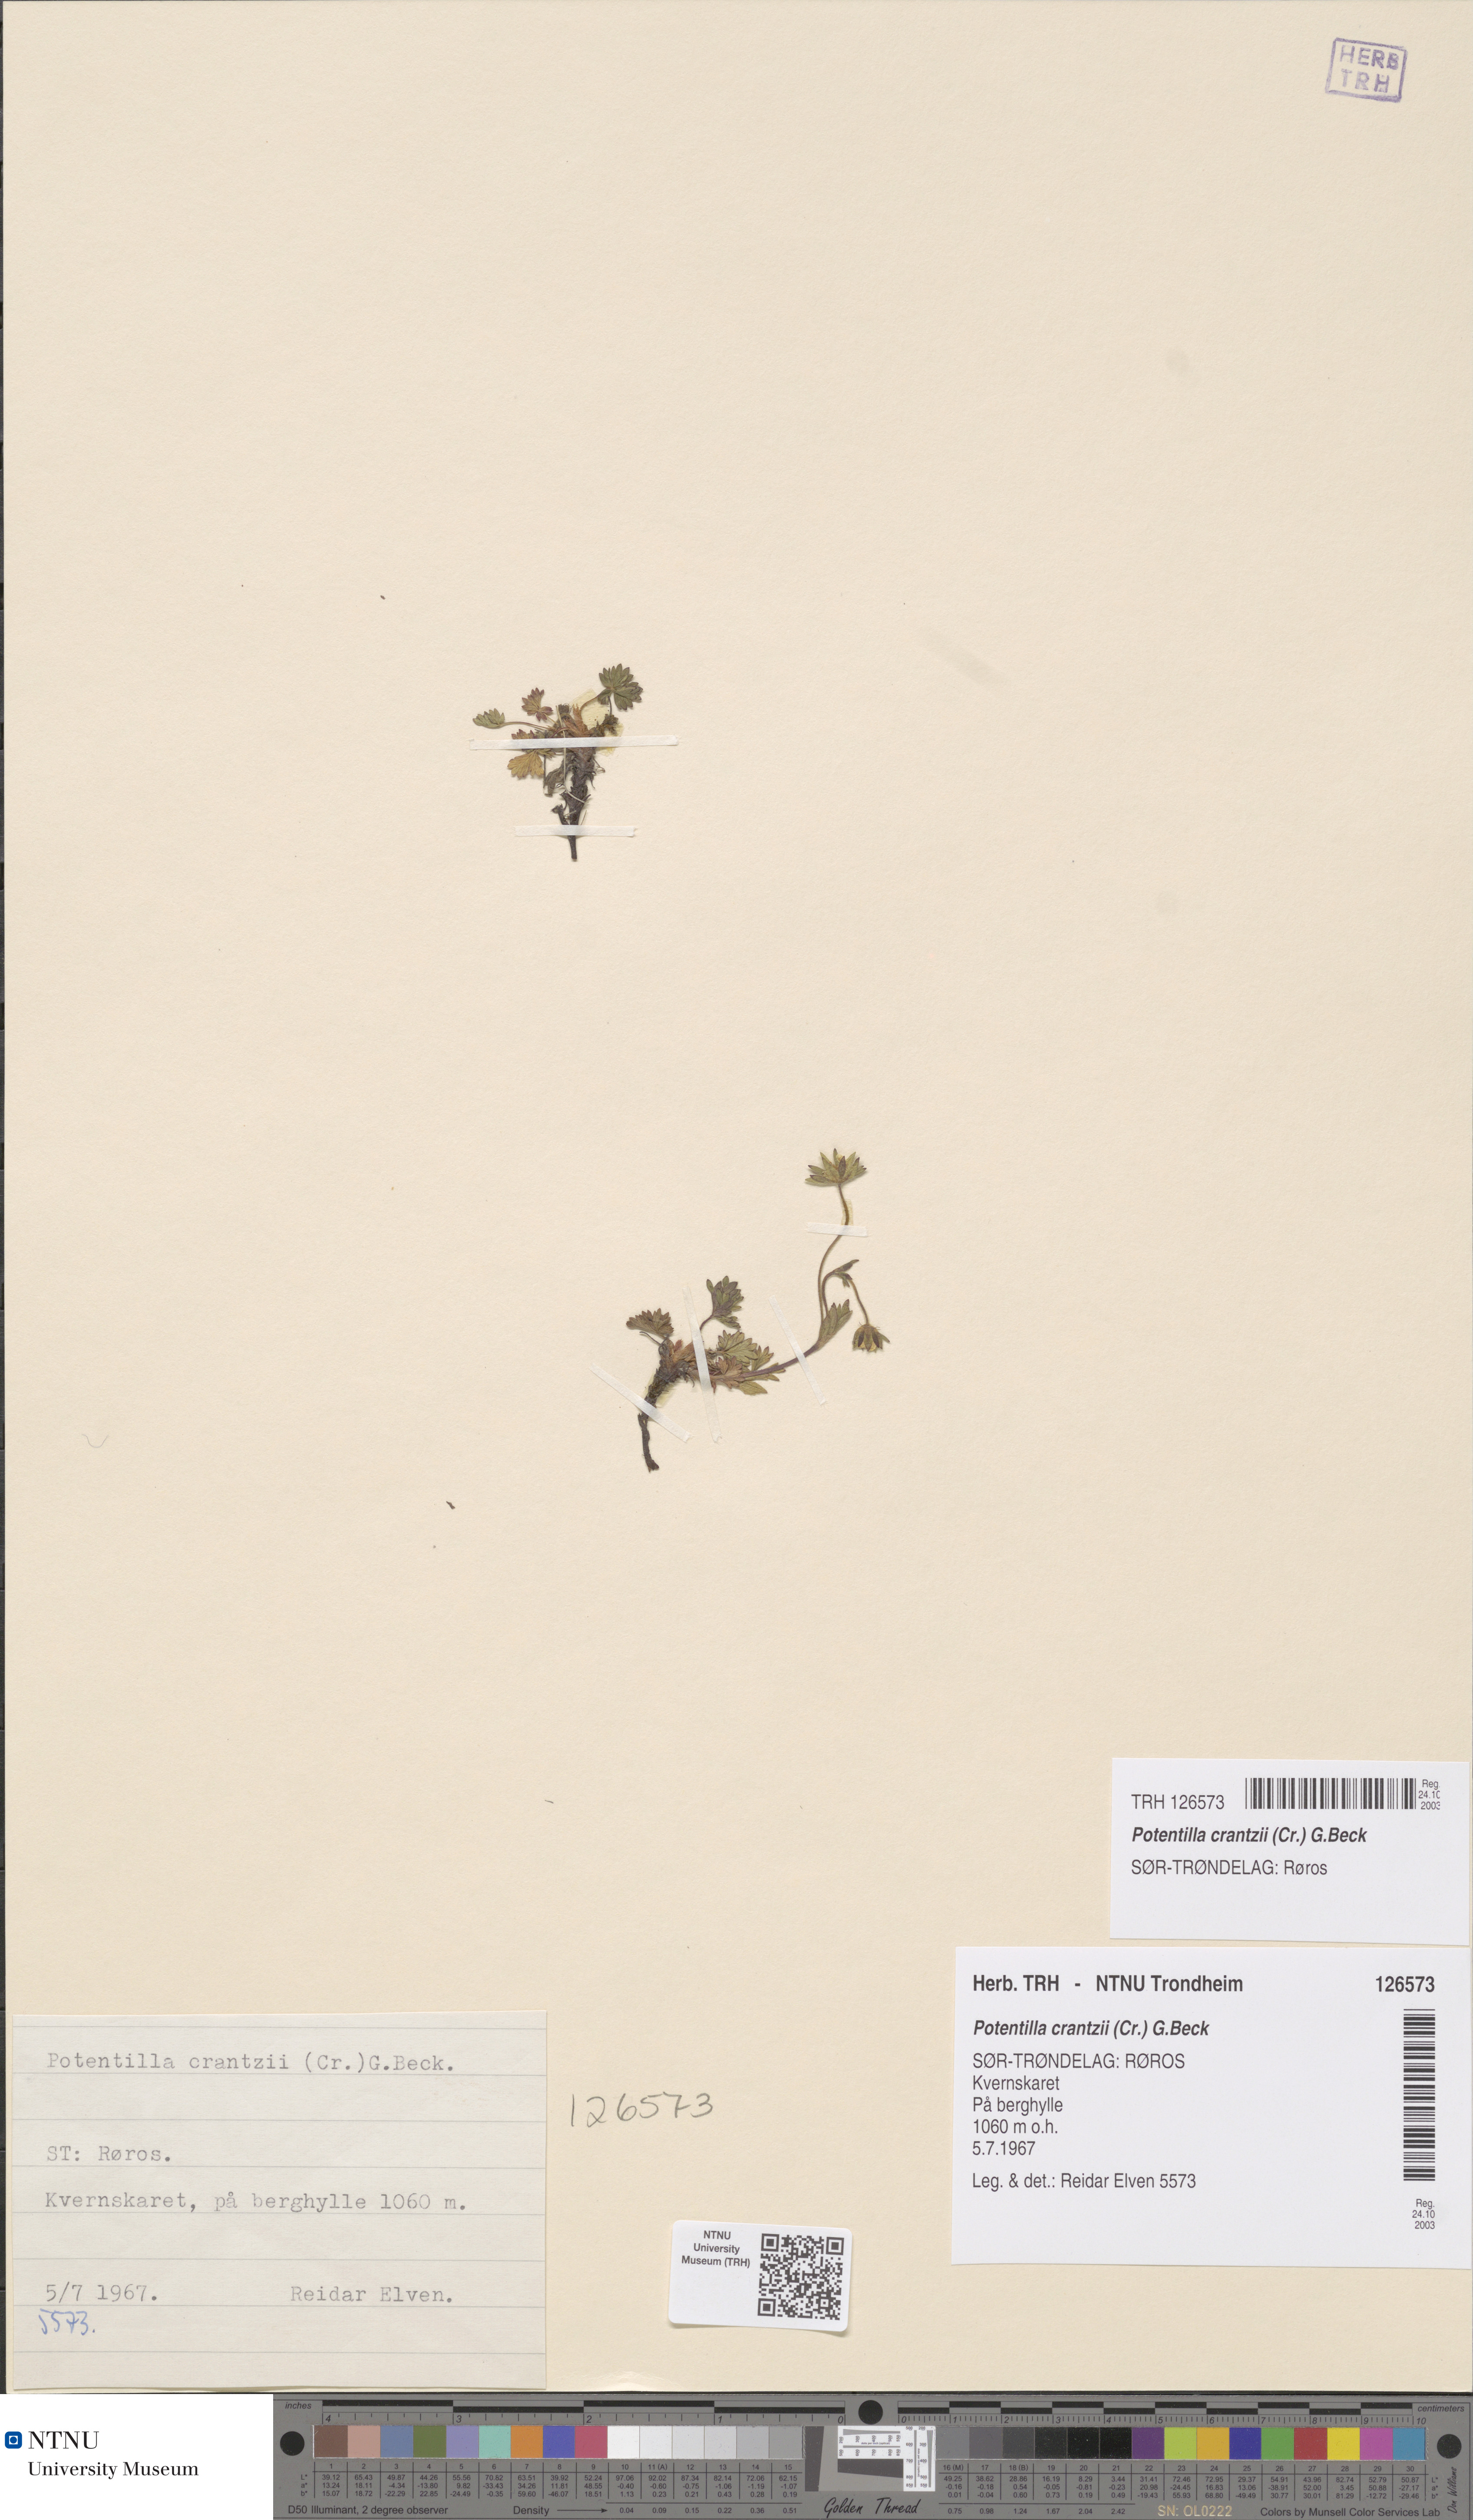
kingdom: Plantae
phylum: Tracheophyta
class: Magnoliopsida
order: Rosales
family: Rosaceae
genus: Potentilla
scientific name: Potentilla crantzii
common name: Alpine cinquefoil
